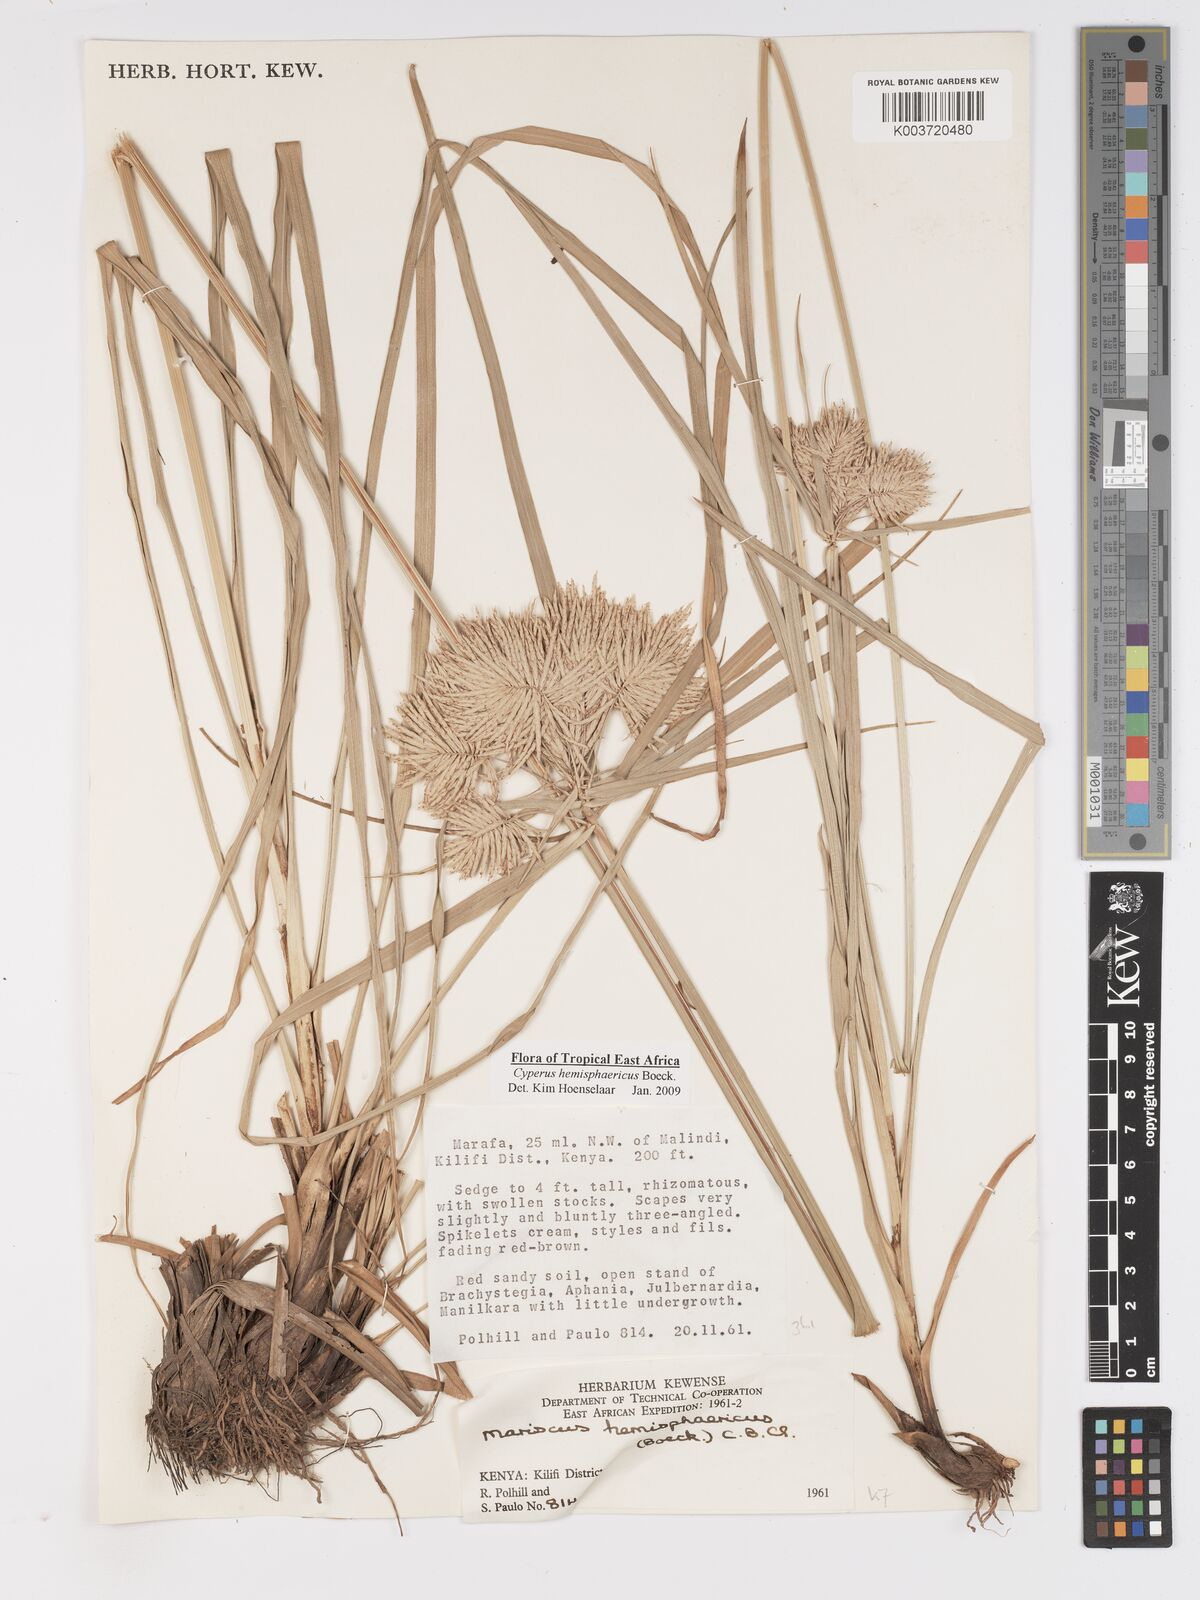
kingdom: Plantae
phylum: Tracheophyta
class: Liliopsida
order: Poales
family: Cyperaceae
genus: Cyperus
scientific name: Cyperus hemisphaericus
